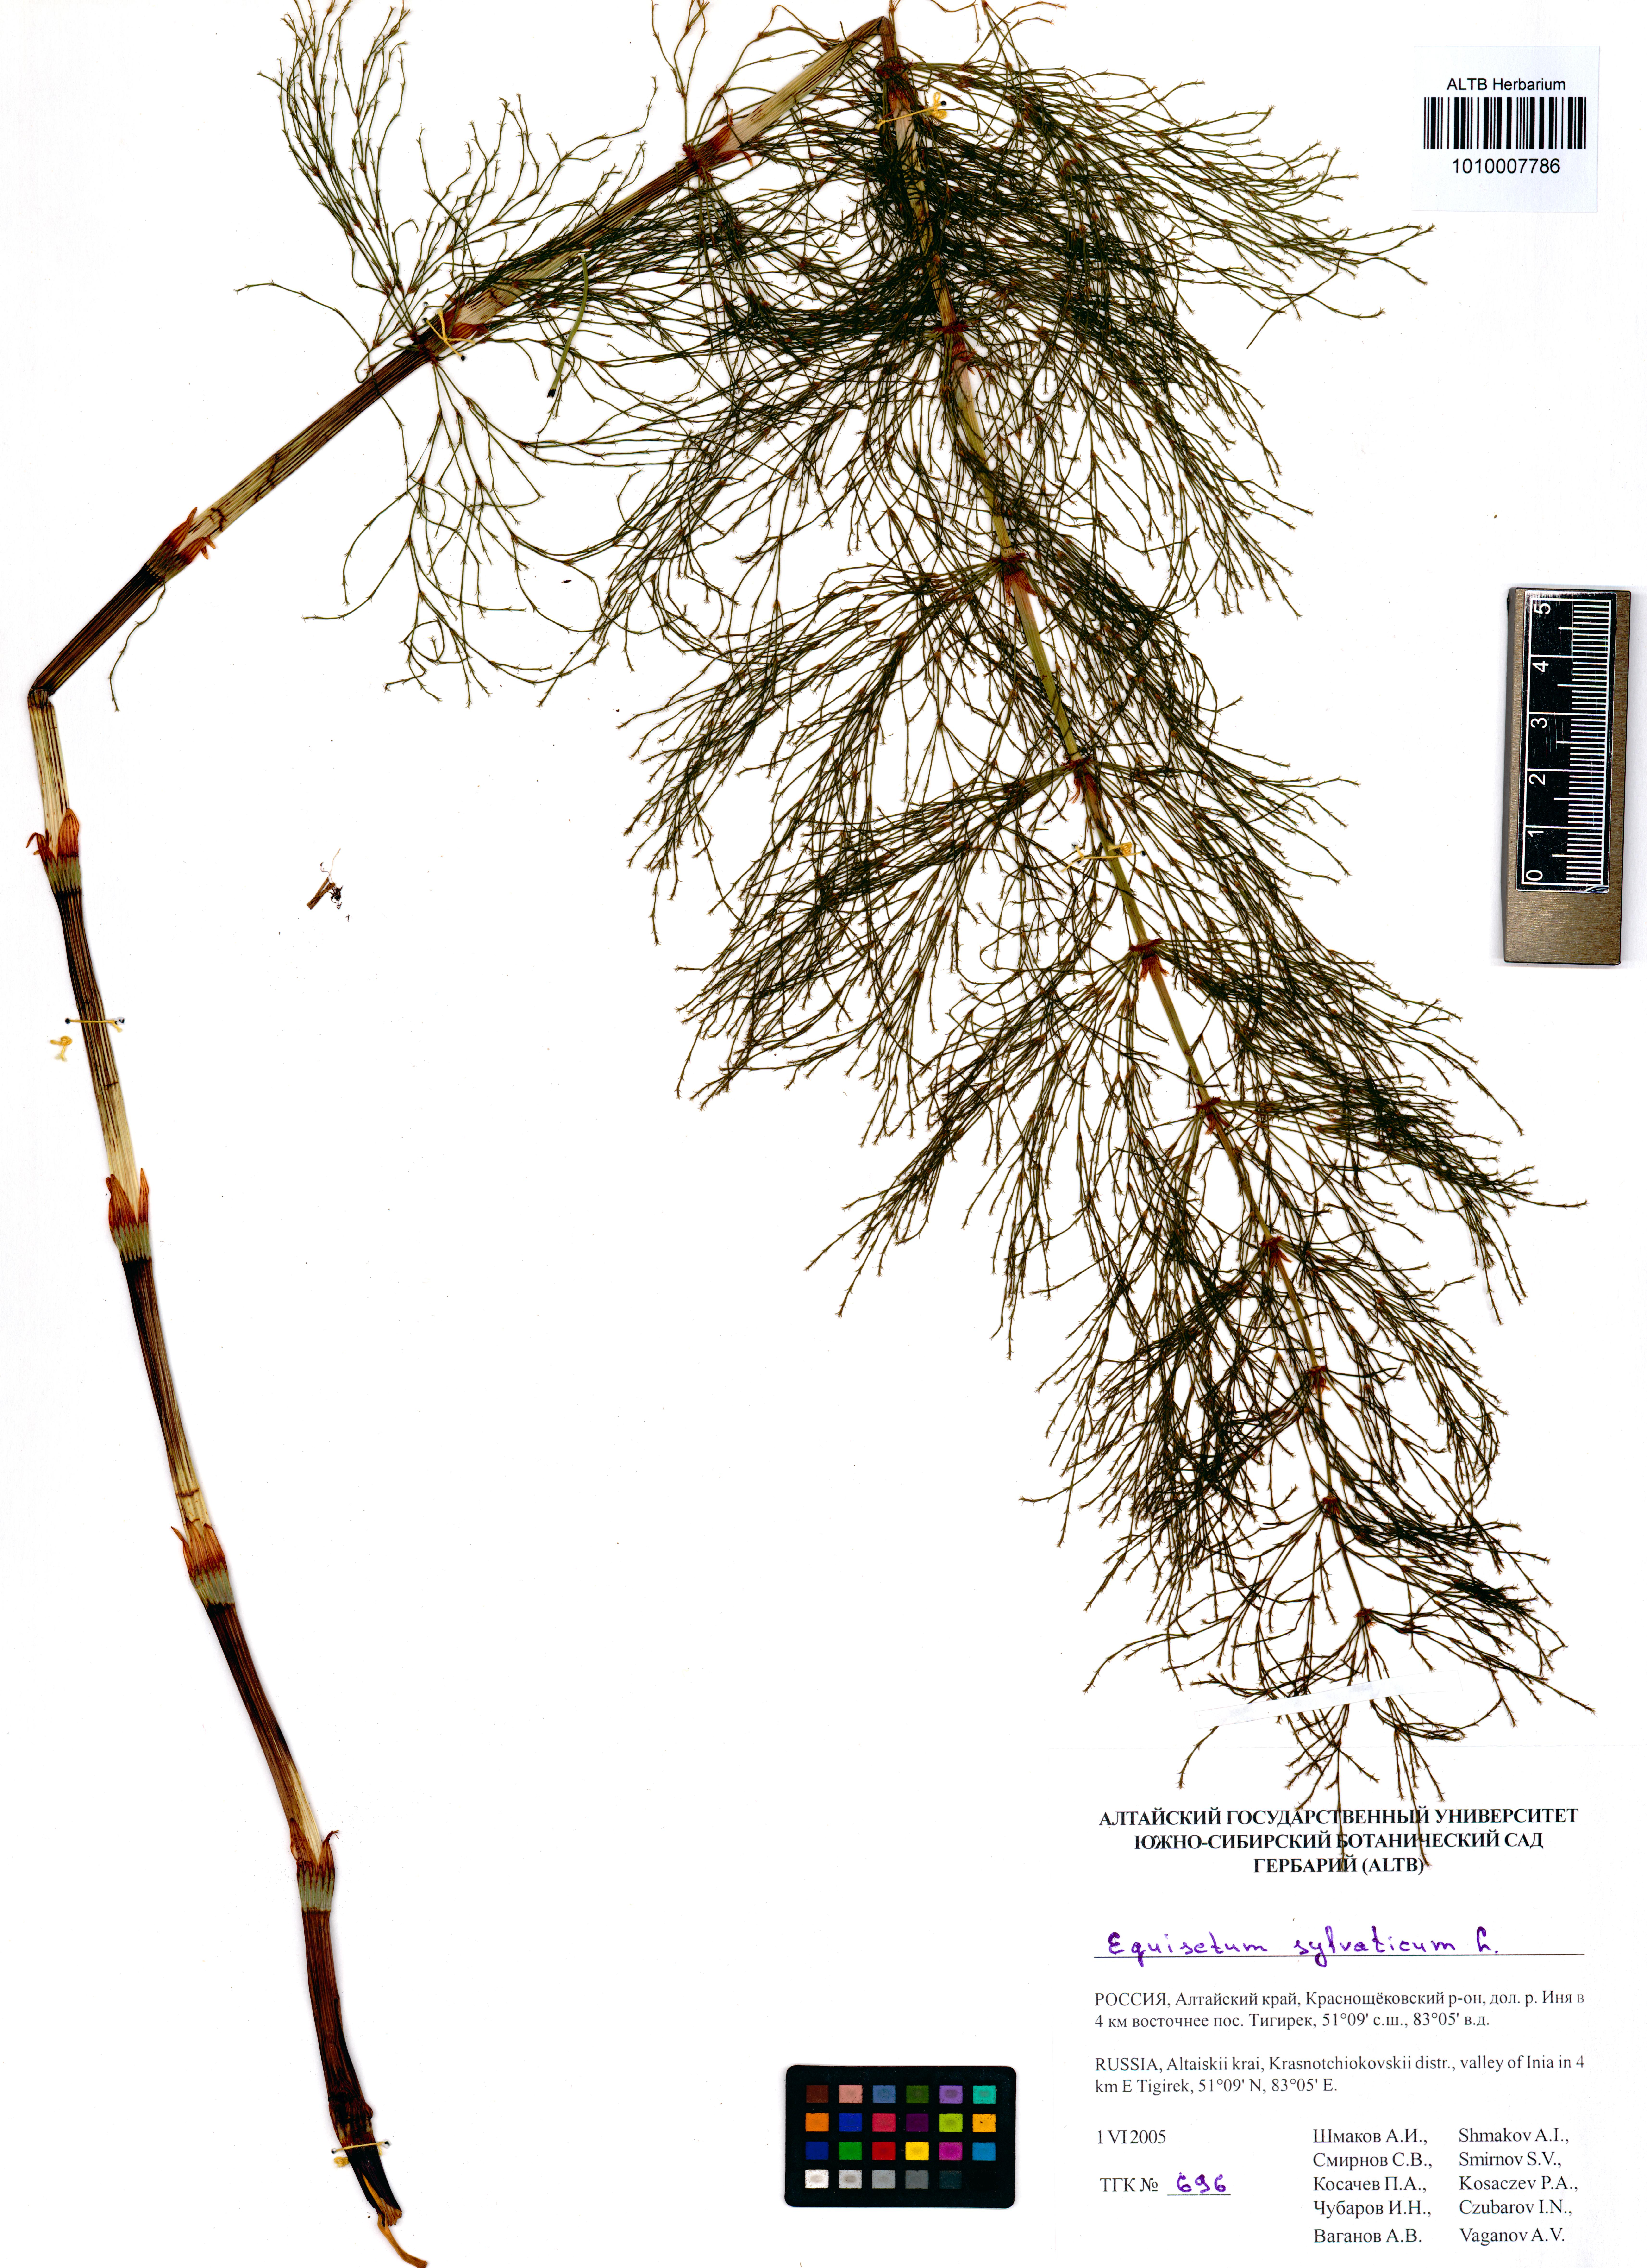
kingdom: Plantae
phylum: Tracheophyta
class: Polypodiopsida
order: Equisetales
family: Equisetaceae
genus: Equisetum
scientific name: Equisetum sylvaticum
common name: Wood horsetail
